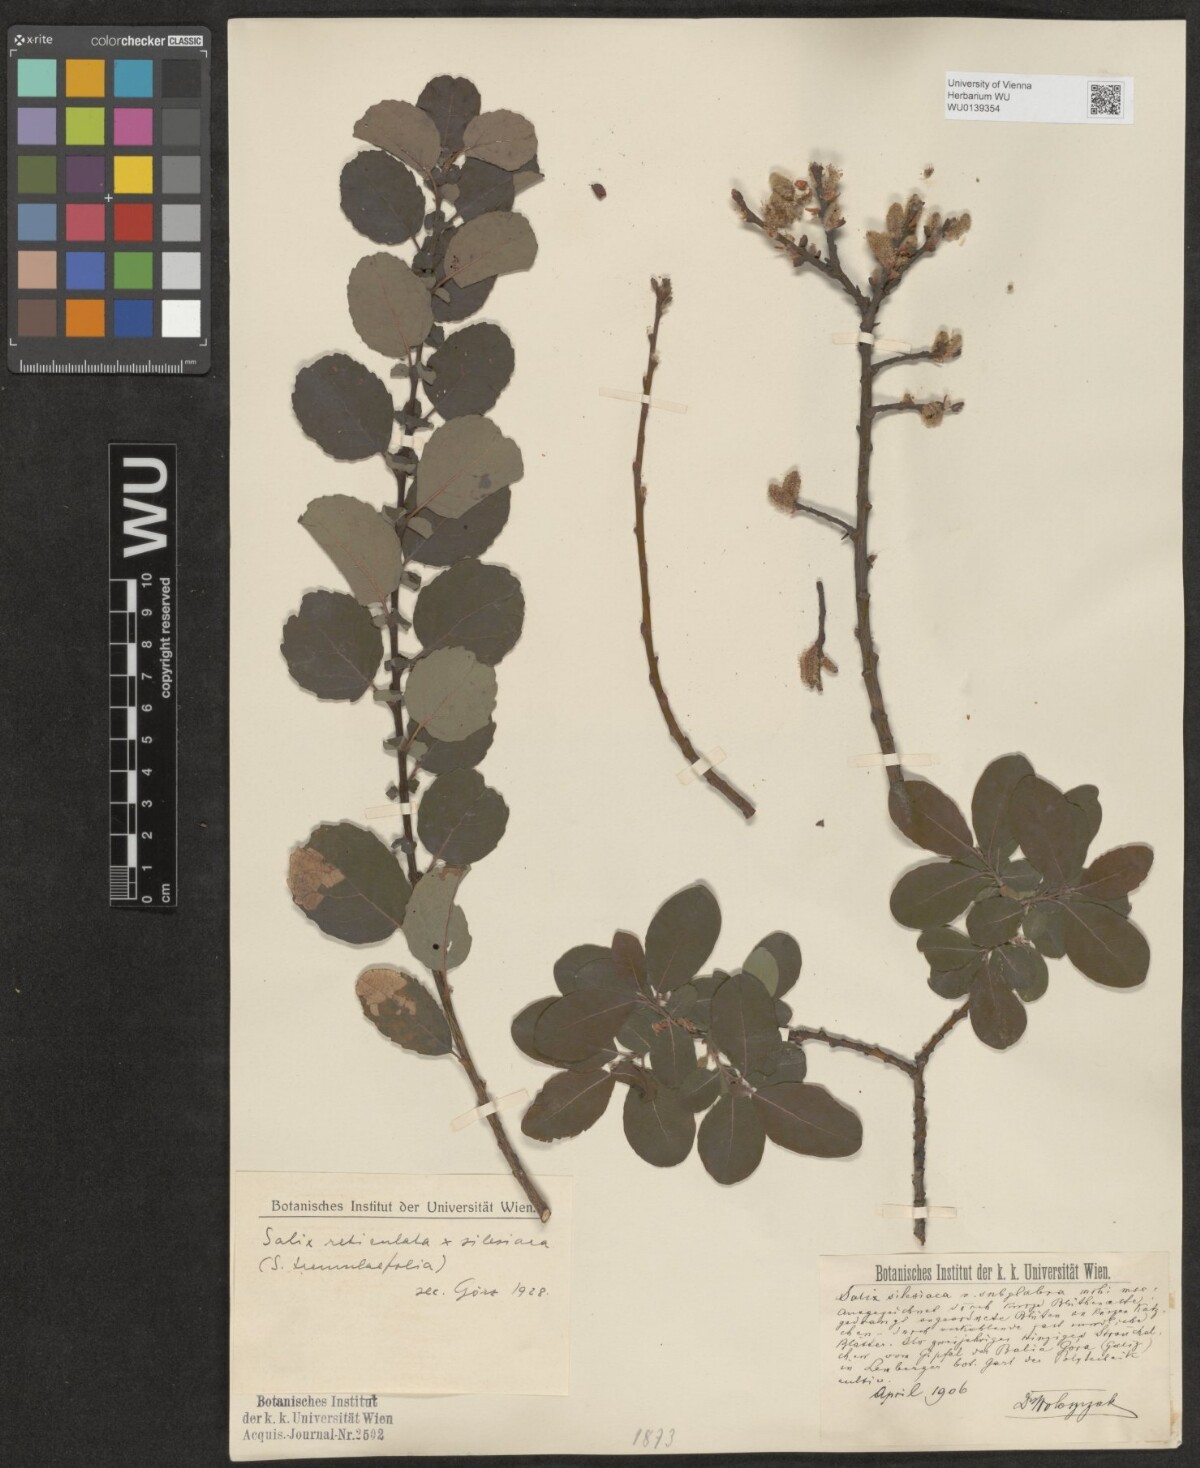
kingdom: Plantae
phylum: Tracheophyta
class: Magnoliopsida
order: Malpighiales
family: Salicaceae
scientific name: Salicaceae
